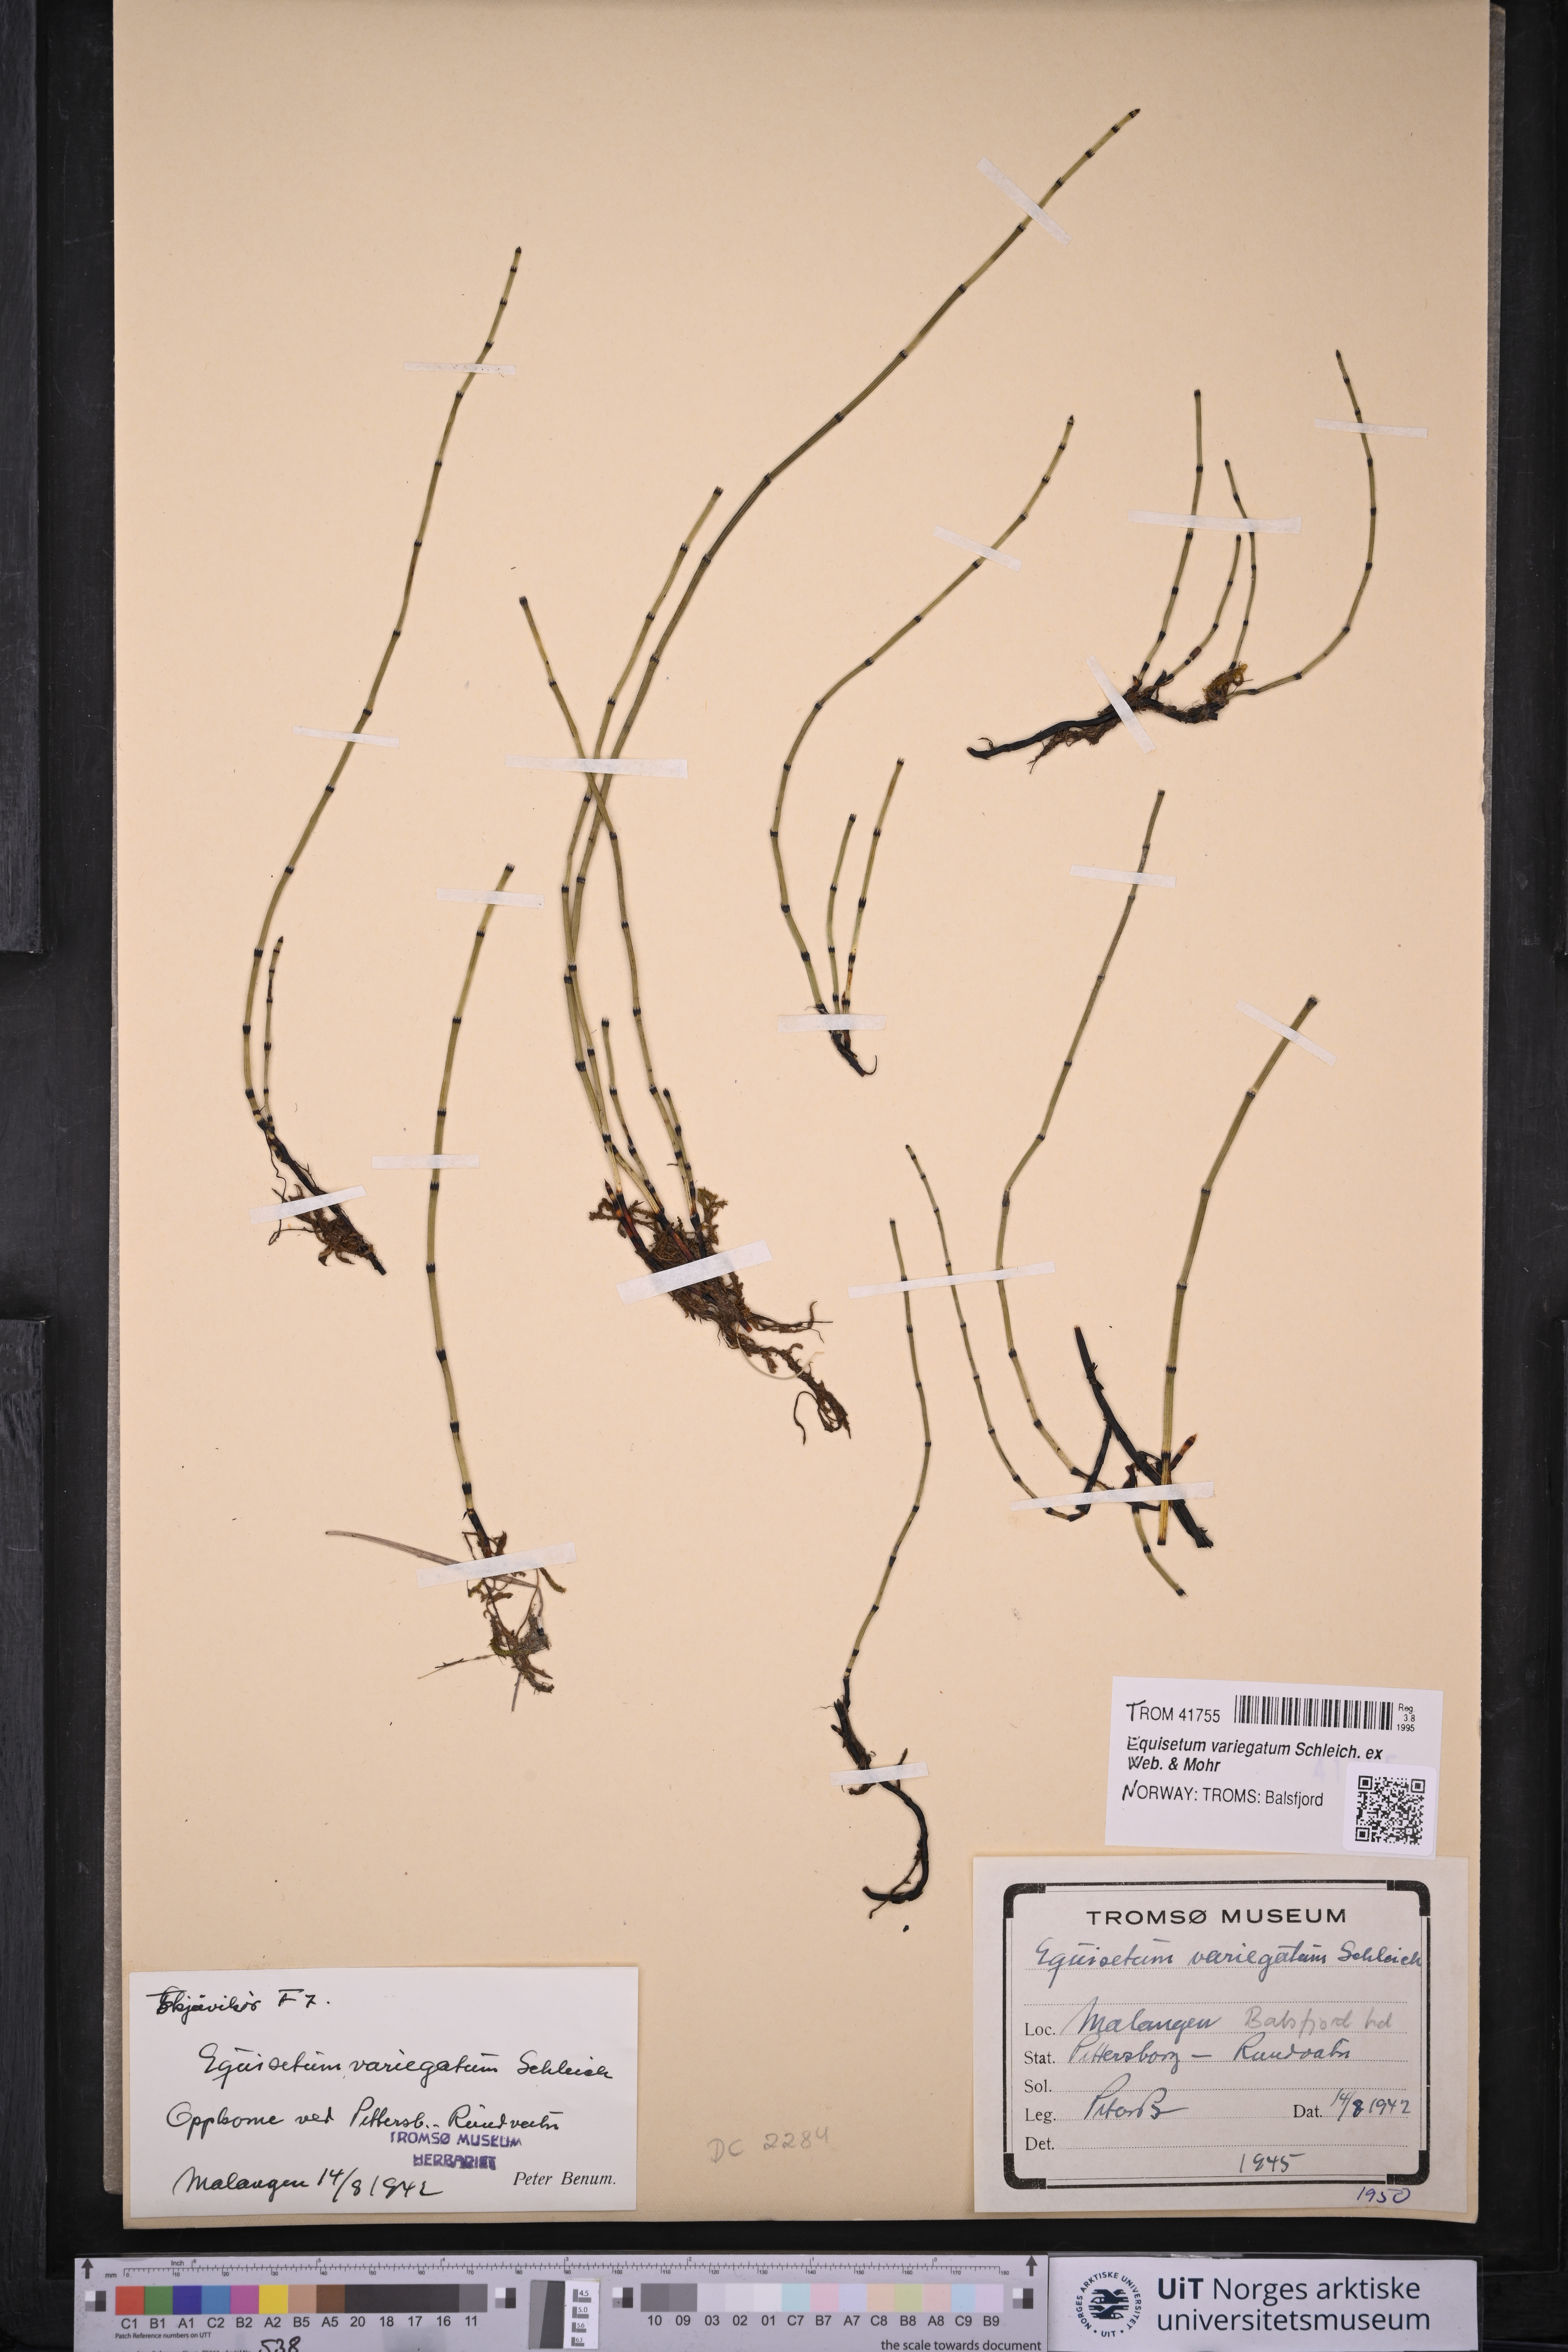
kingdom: Plantae
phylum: Tracheophyta
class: Polypodiopsida
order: Equisetales
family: Equisetaceae
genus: Equisetum
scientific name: Equisetum variegatum
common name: Variegated horsetail
